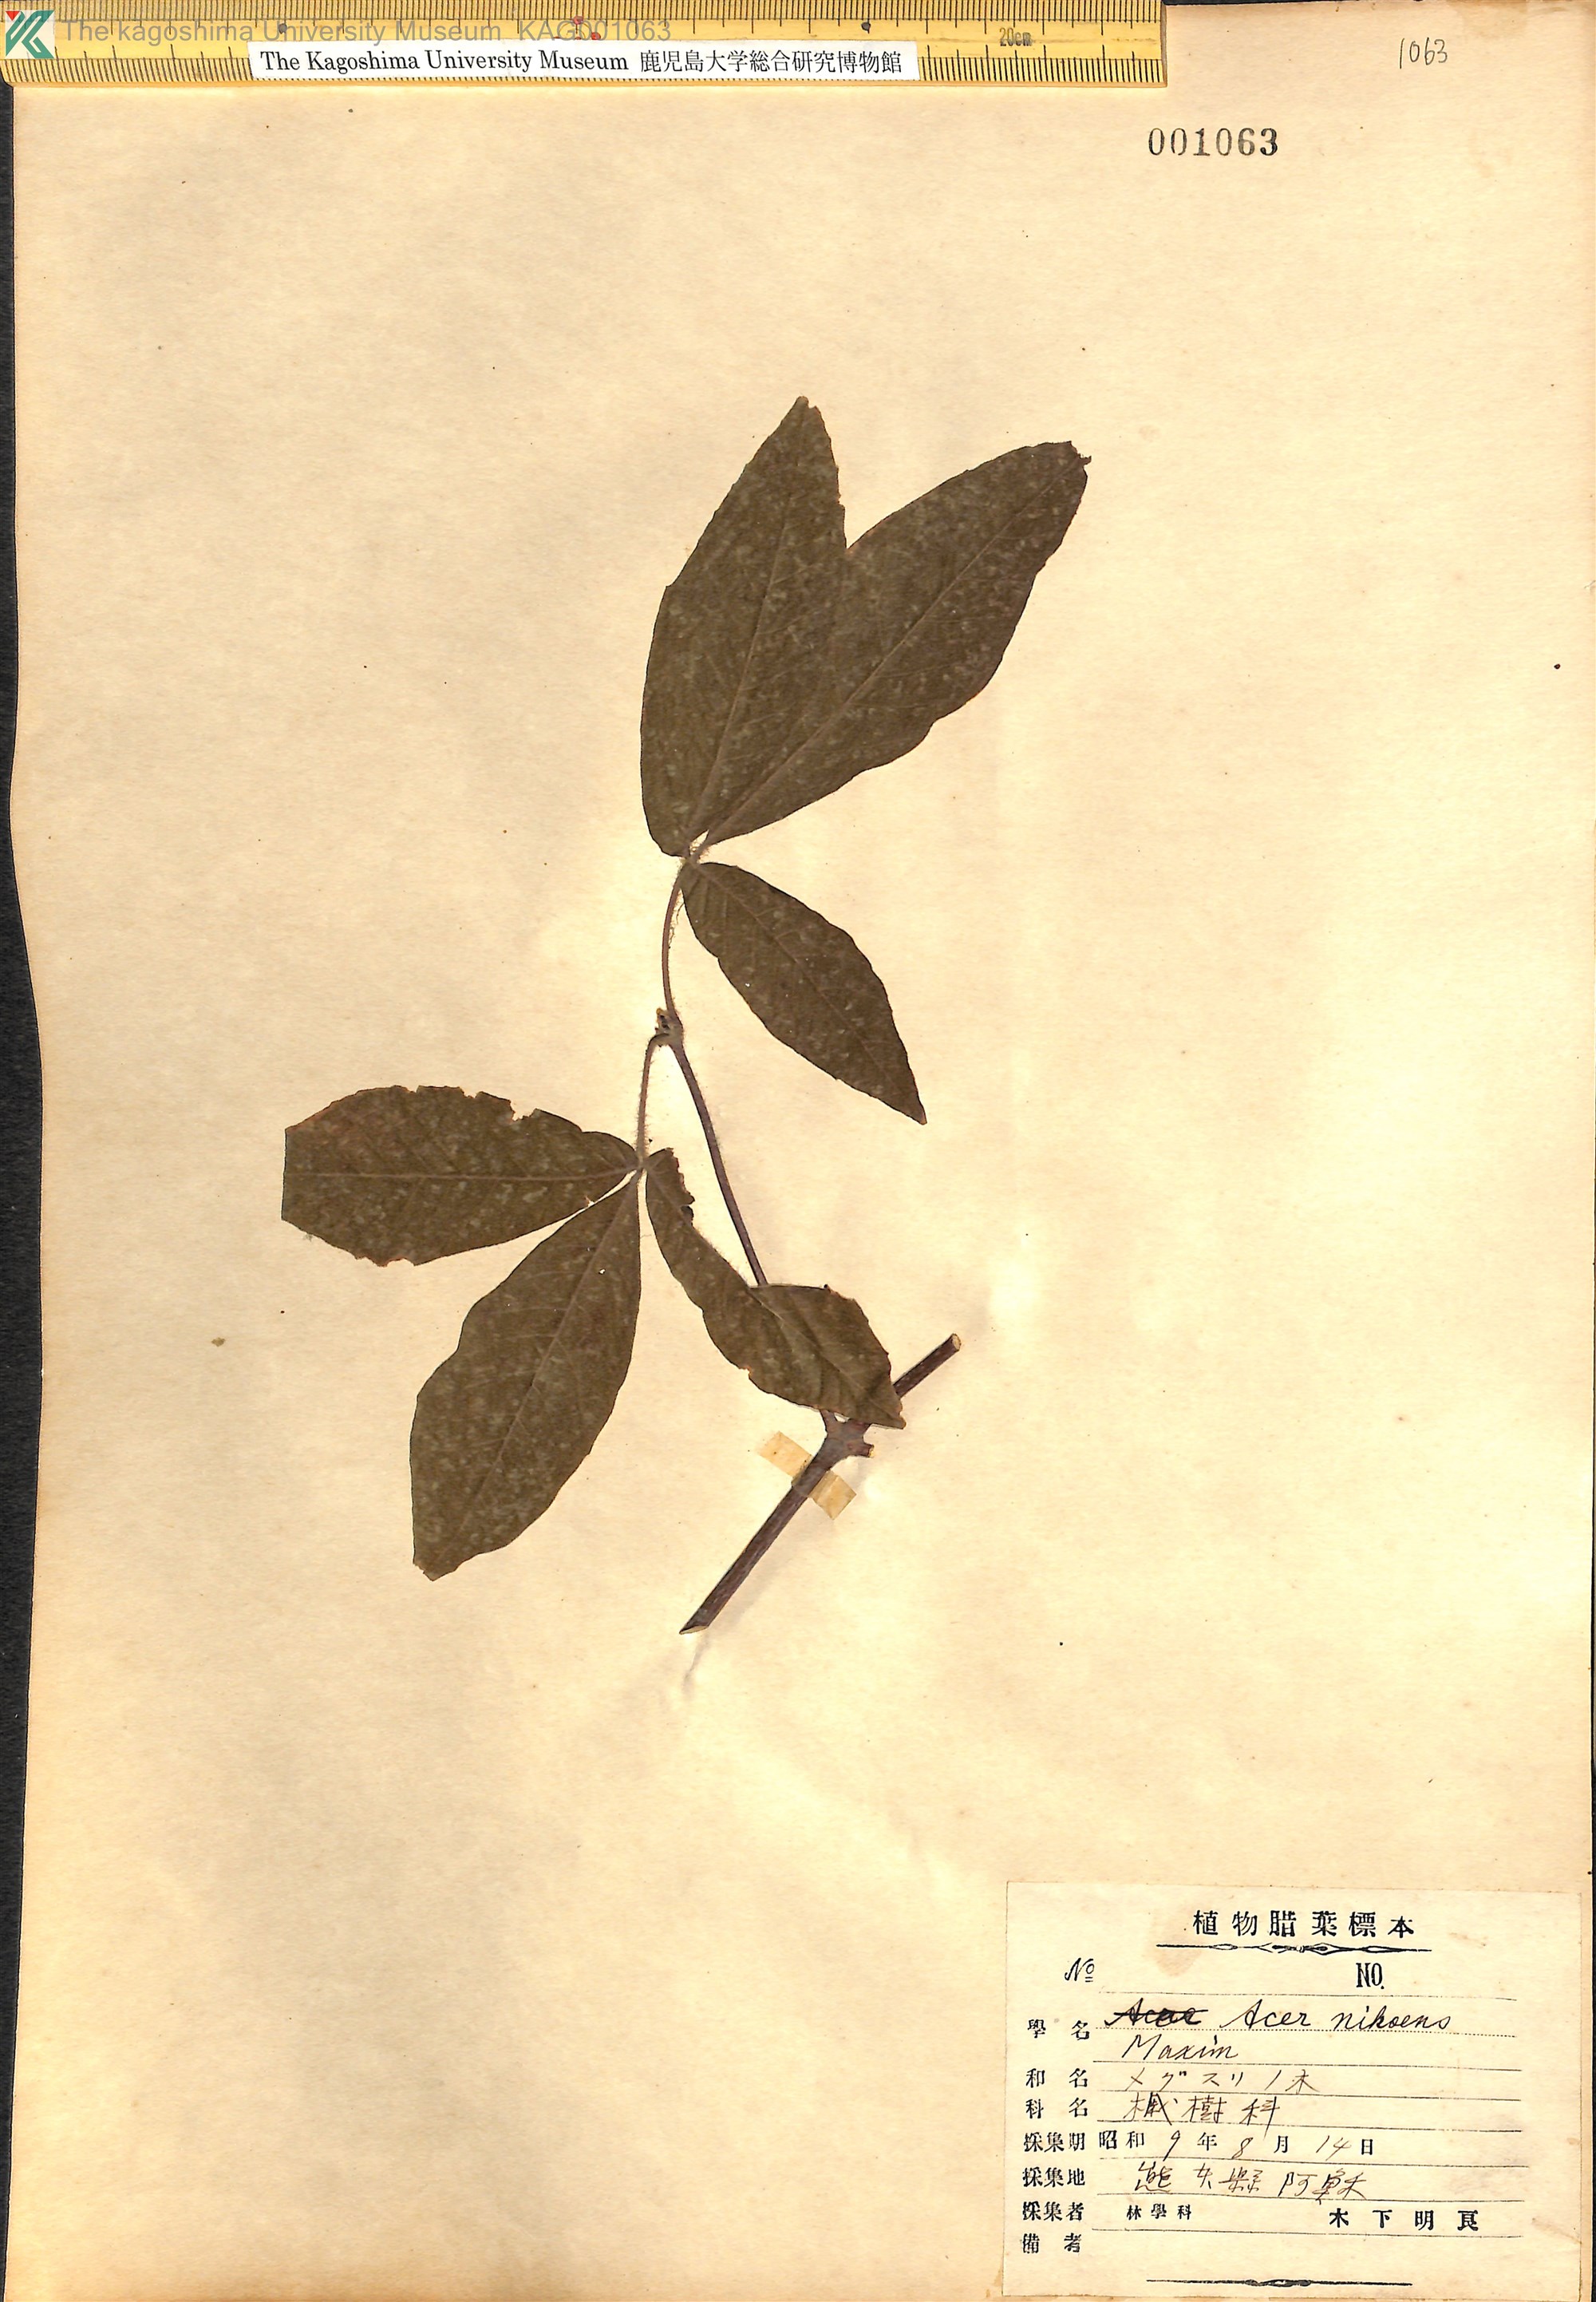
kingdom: Plantae
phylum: Tracheophyta
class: Magnoliopsida
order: Sapindales
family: Sapindaceae
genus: Acer
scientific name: Acer maximowiczianum
